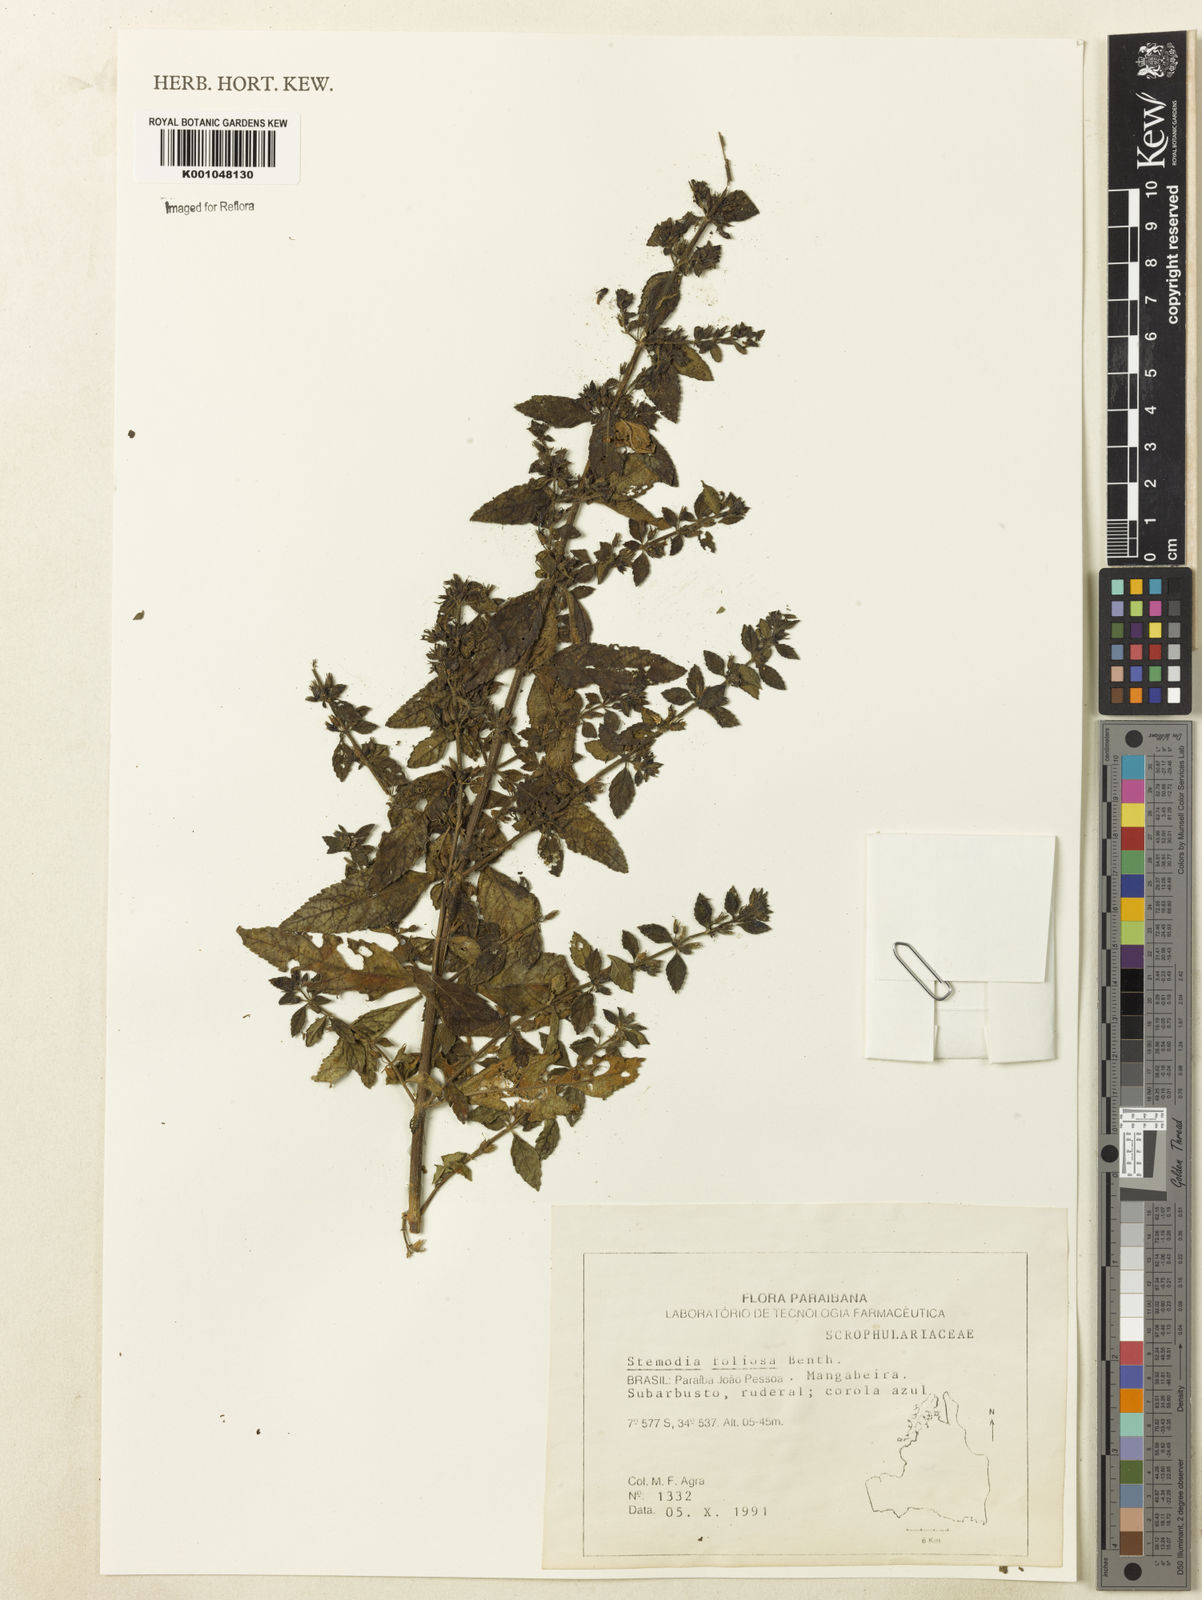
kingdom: Plantae
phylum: Tracheophyta
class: Magnoliopsida
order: Lamiales
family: Plantaginaceae
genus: Stemodia
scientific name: Stemodia foliosa
